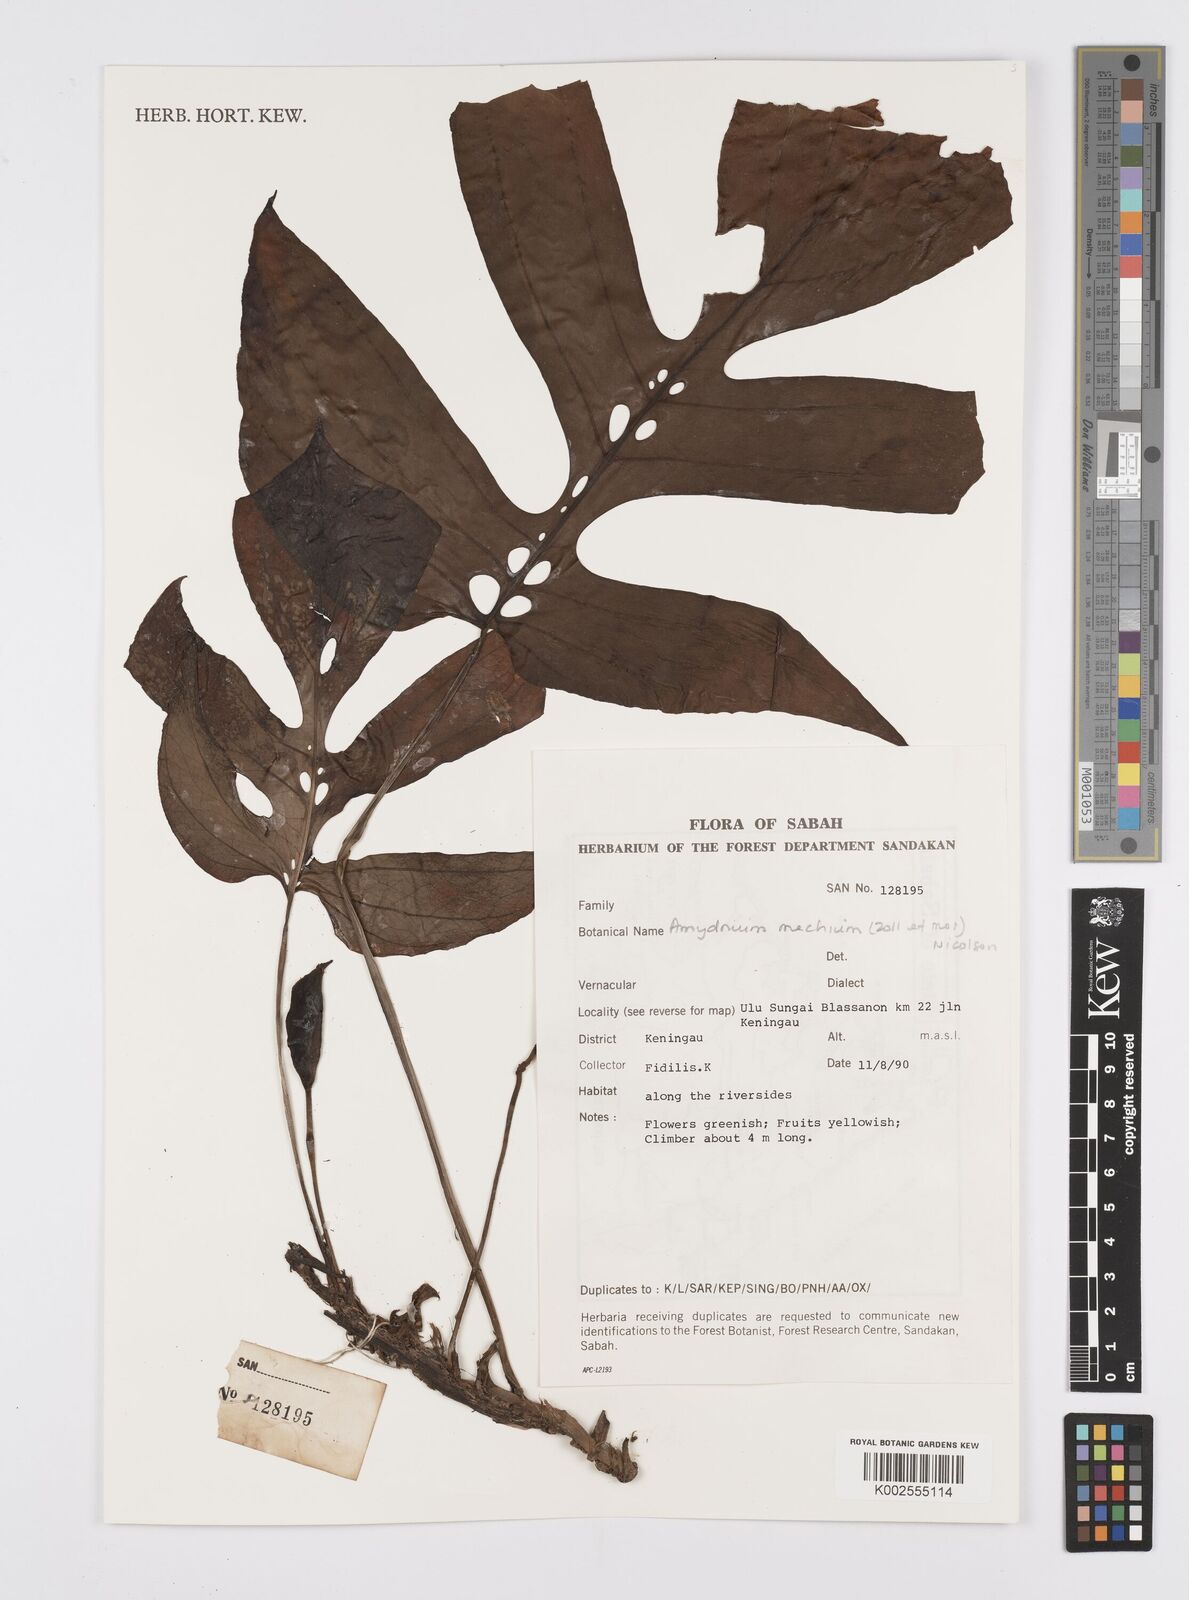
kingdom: Plantae
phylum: Tracheophyta
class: Liliopsida
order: Alismatales
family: Araceae
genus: Amydrium
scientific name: Amydrium medium
